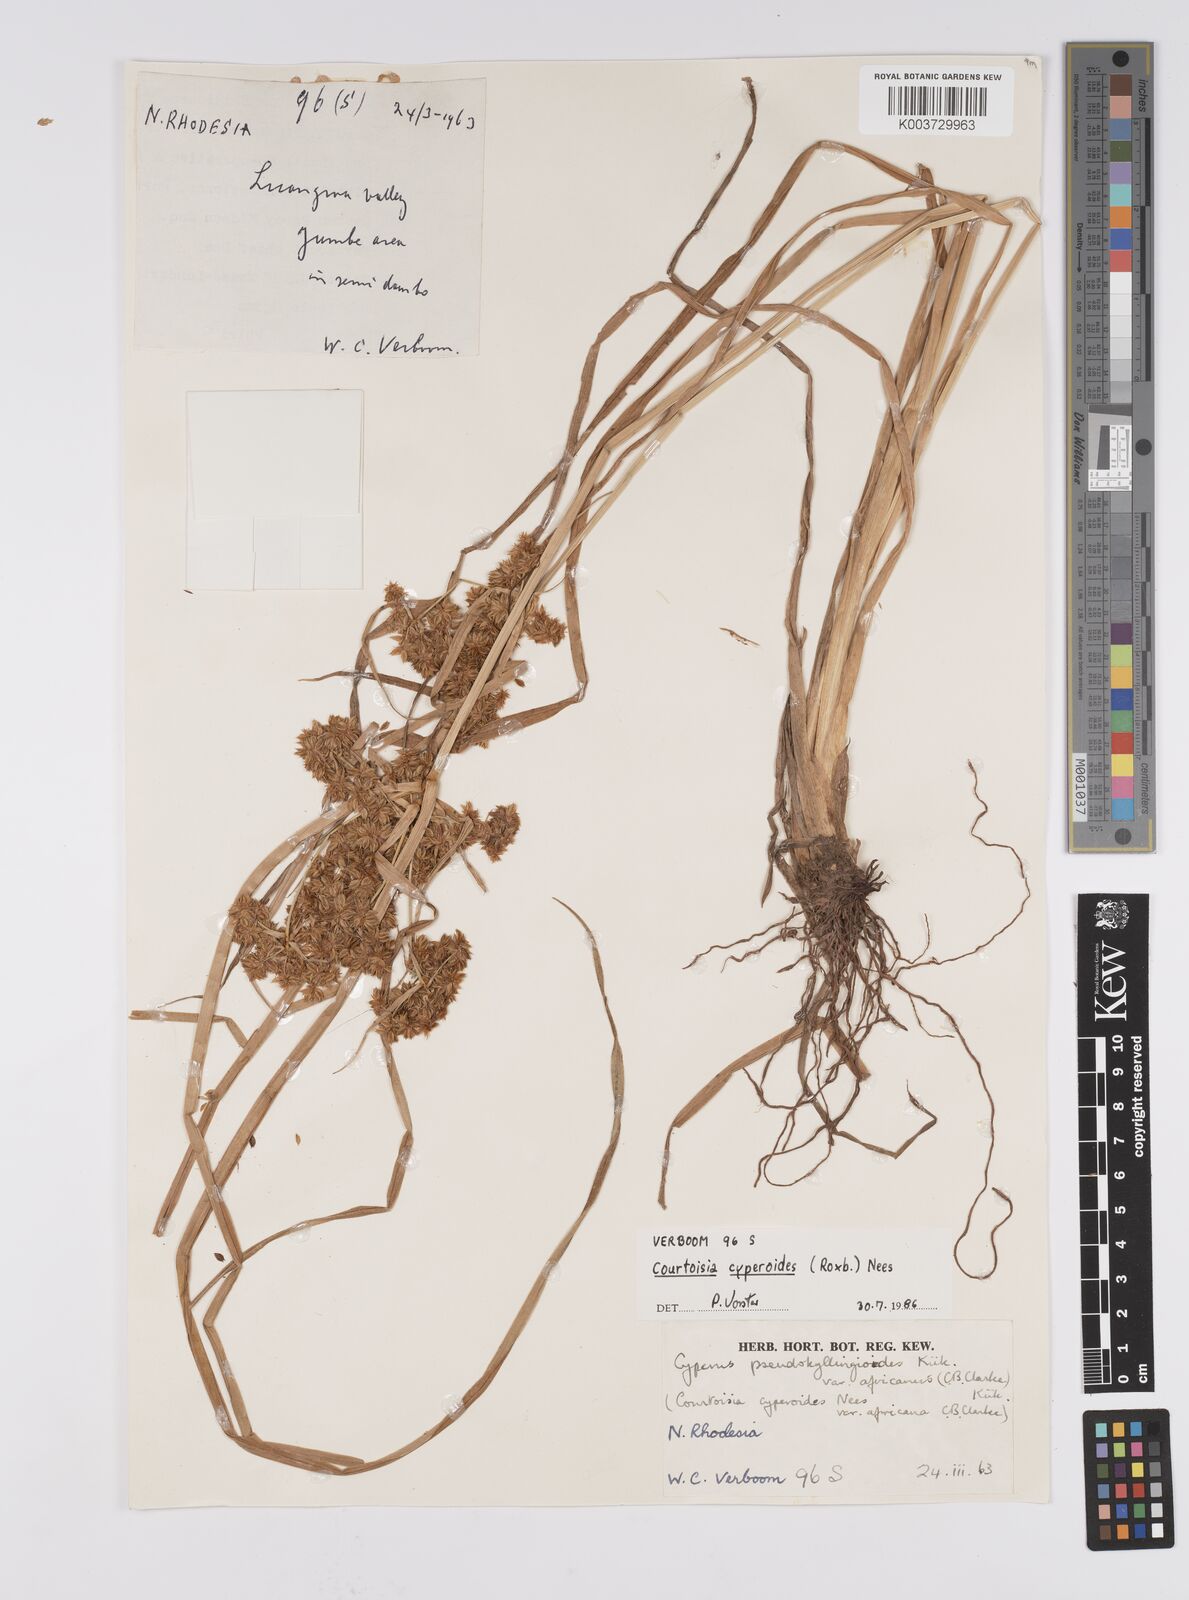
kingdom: Plantae
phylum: Tracheophyta
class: Liliopsida
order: Poales
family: Cyperaceae
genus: Cyperus
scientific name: Cyperus cyperoides
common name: Pacific island flat sedge
